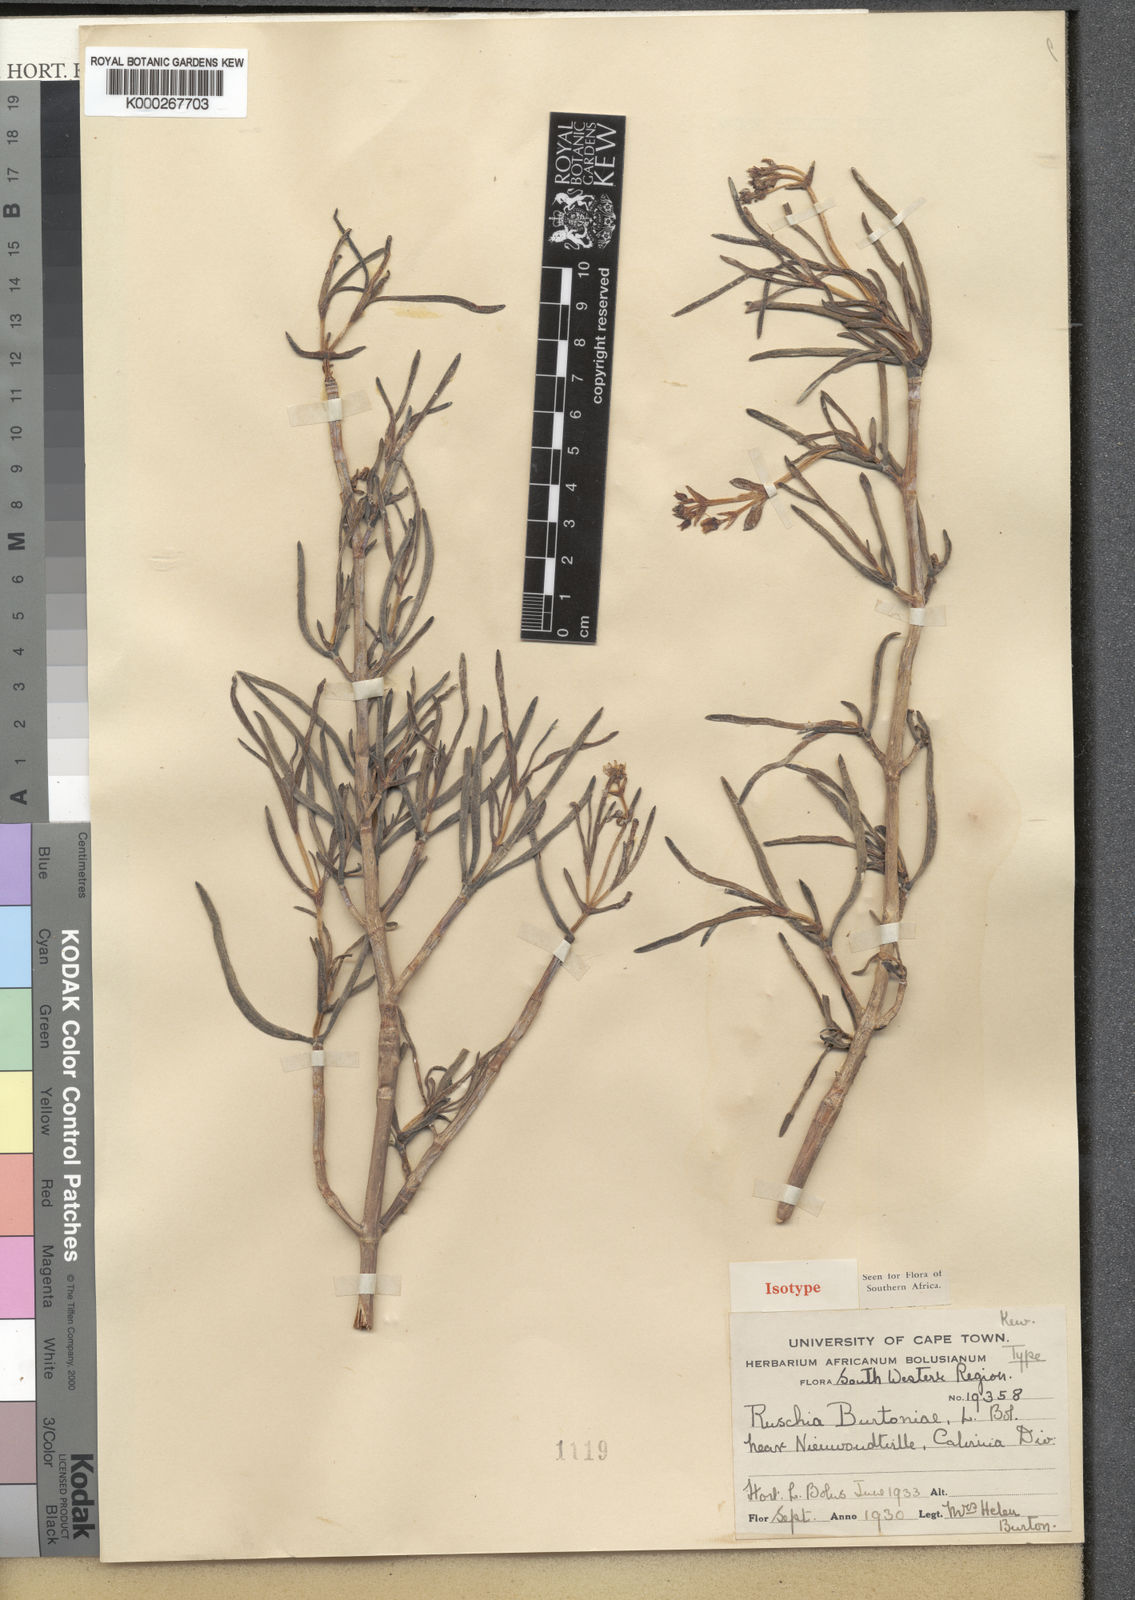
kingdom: Plantae
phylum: Tracheophyta
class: Magnoliopsida
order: Caryophyllales
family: Aizoaceae
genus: Ruschia
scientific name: Ruschia burtoniae
